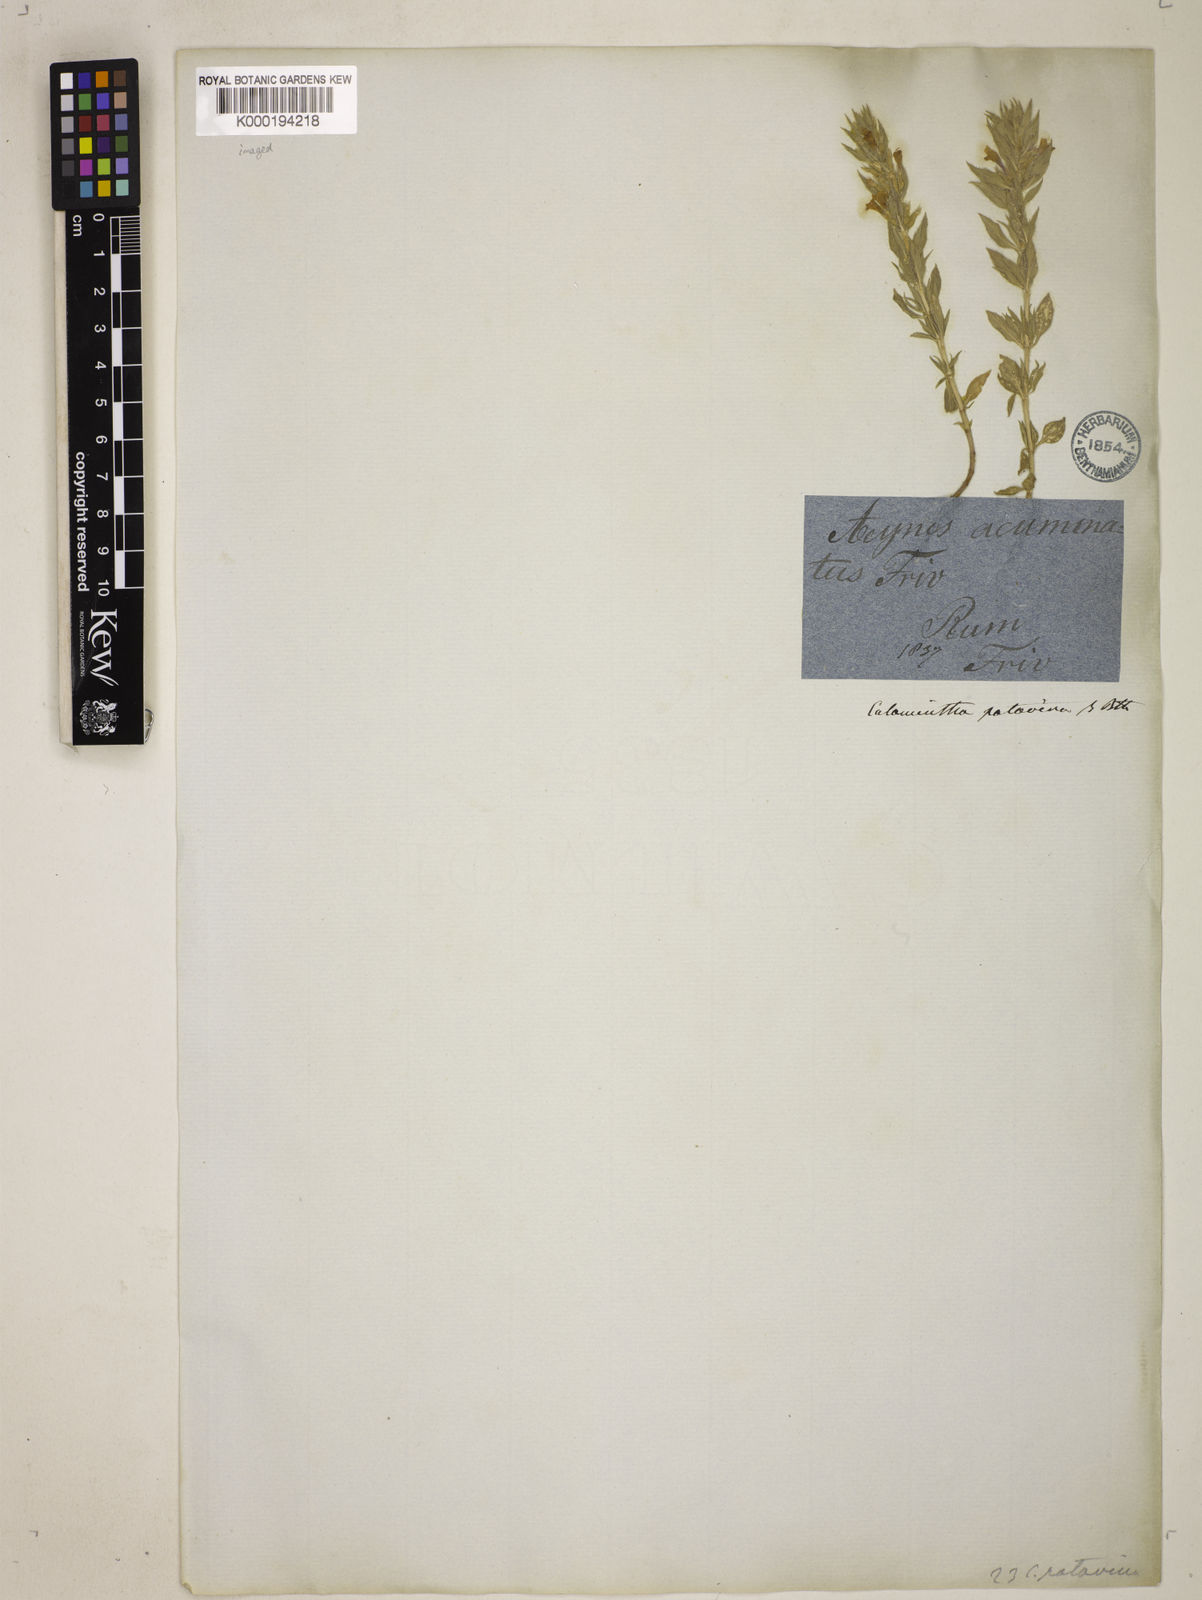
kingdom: Plantae
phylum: Tracheophyta
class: Magnoliopsida
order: Lamiales
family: Lamiaceae
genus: Clinopodium
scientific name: Clinopodium suaveolens
